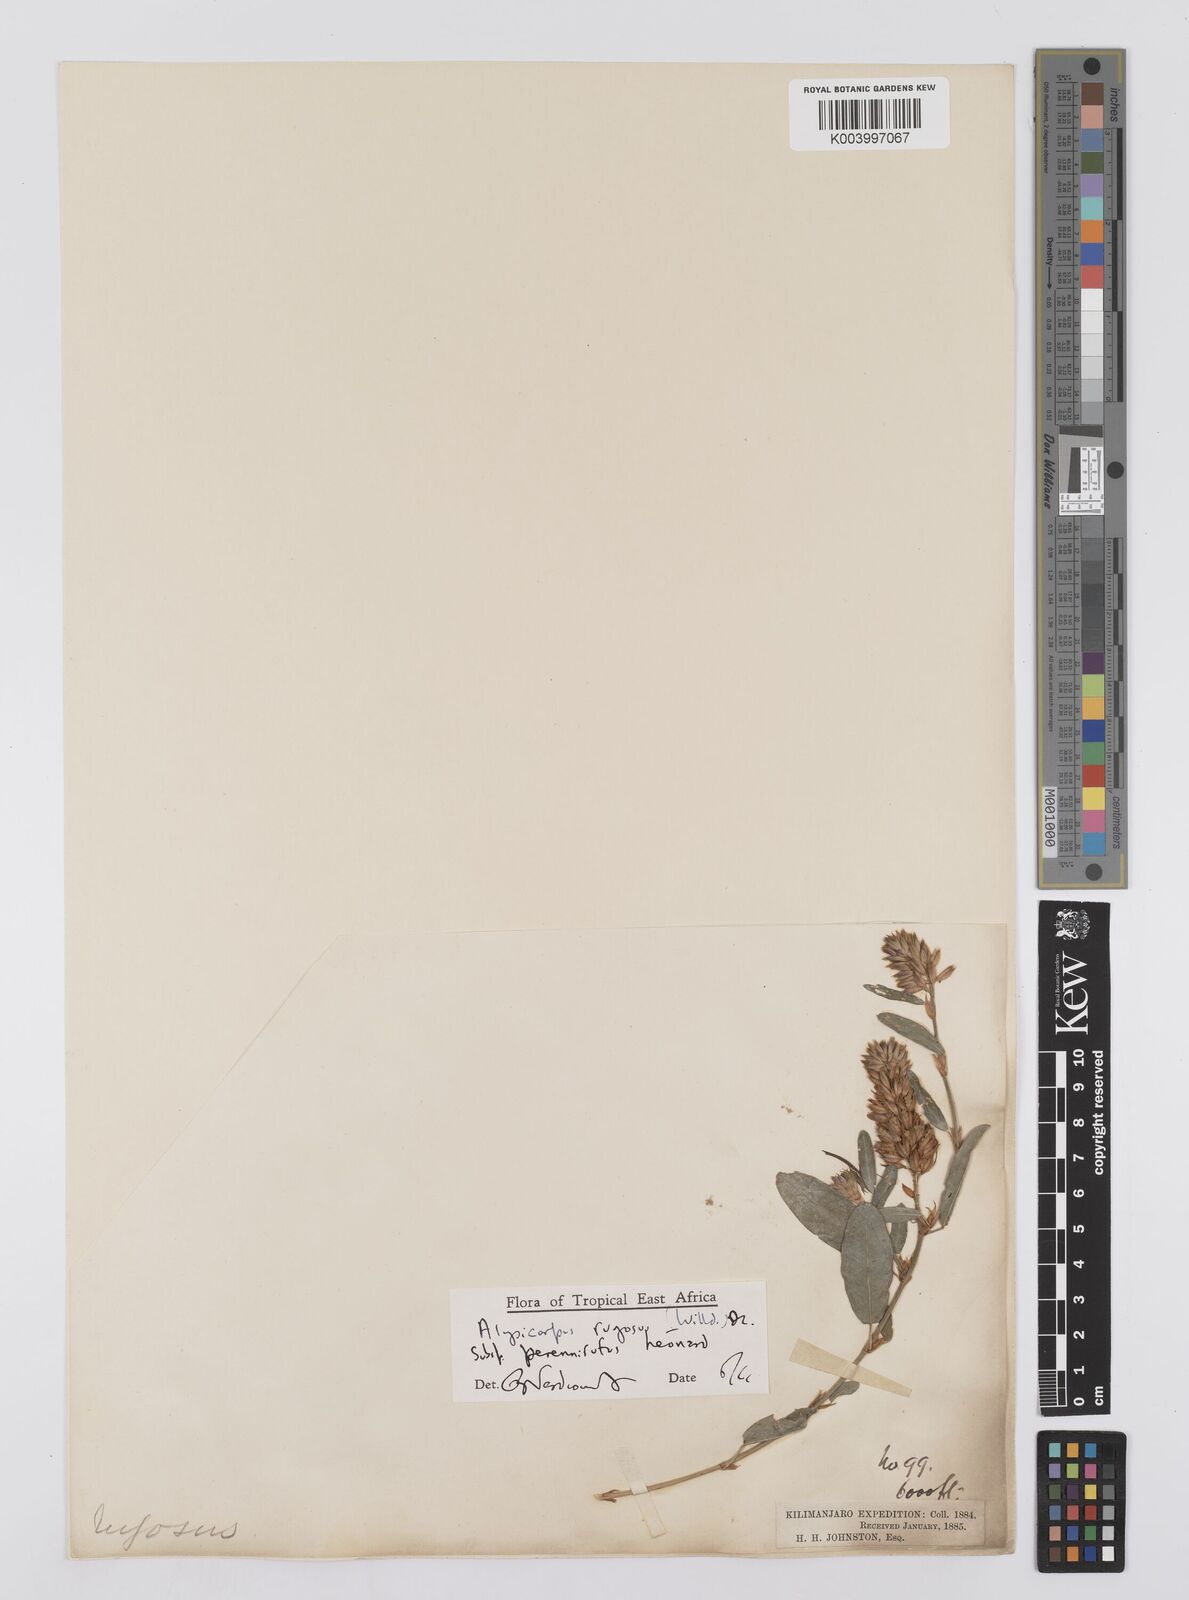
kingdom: Plantae
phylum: Tracheophyta
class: Magnoliopsida
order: Fabales
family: Fabaceae
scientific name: Fabaceae
